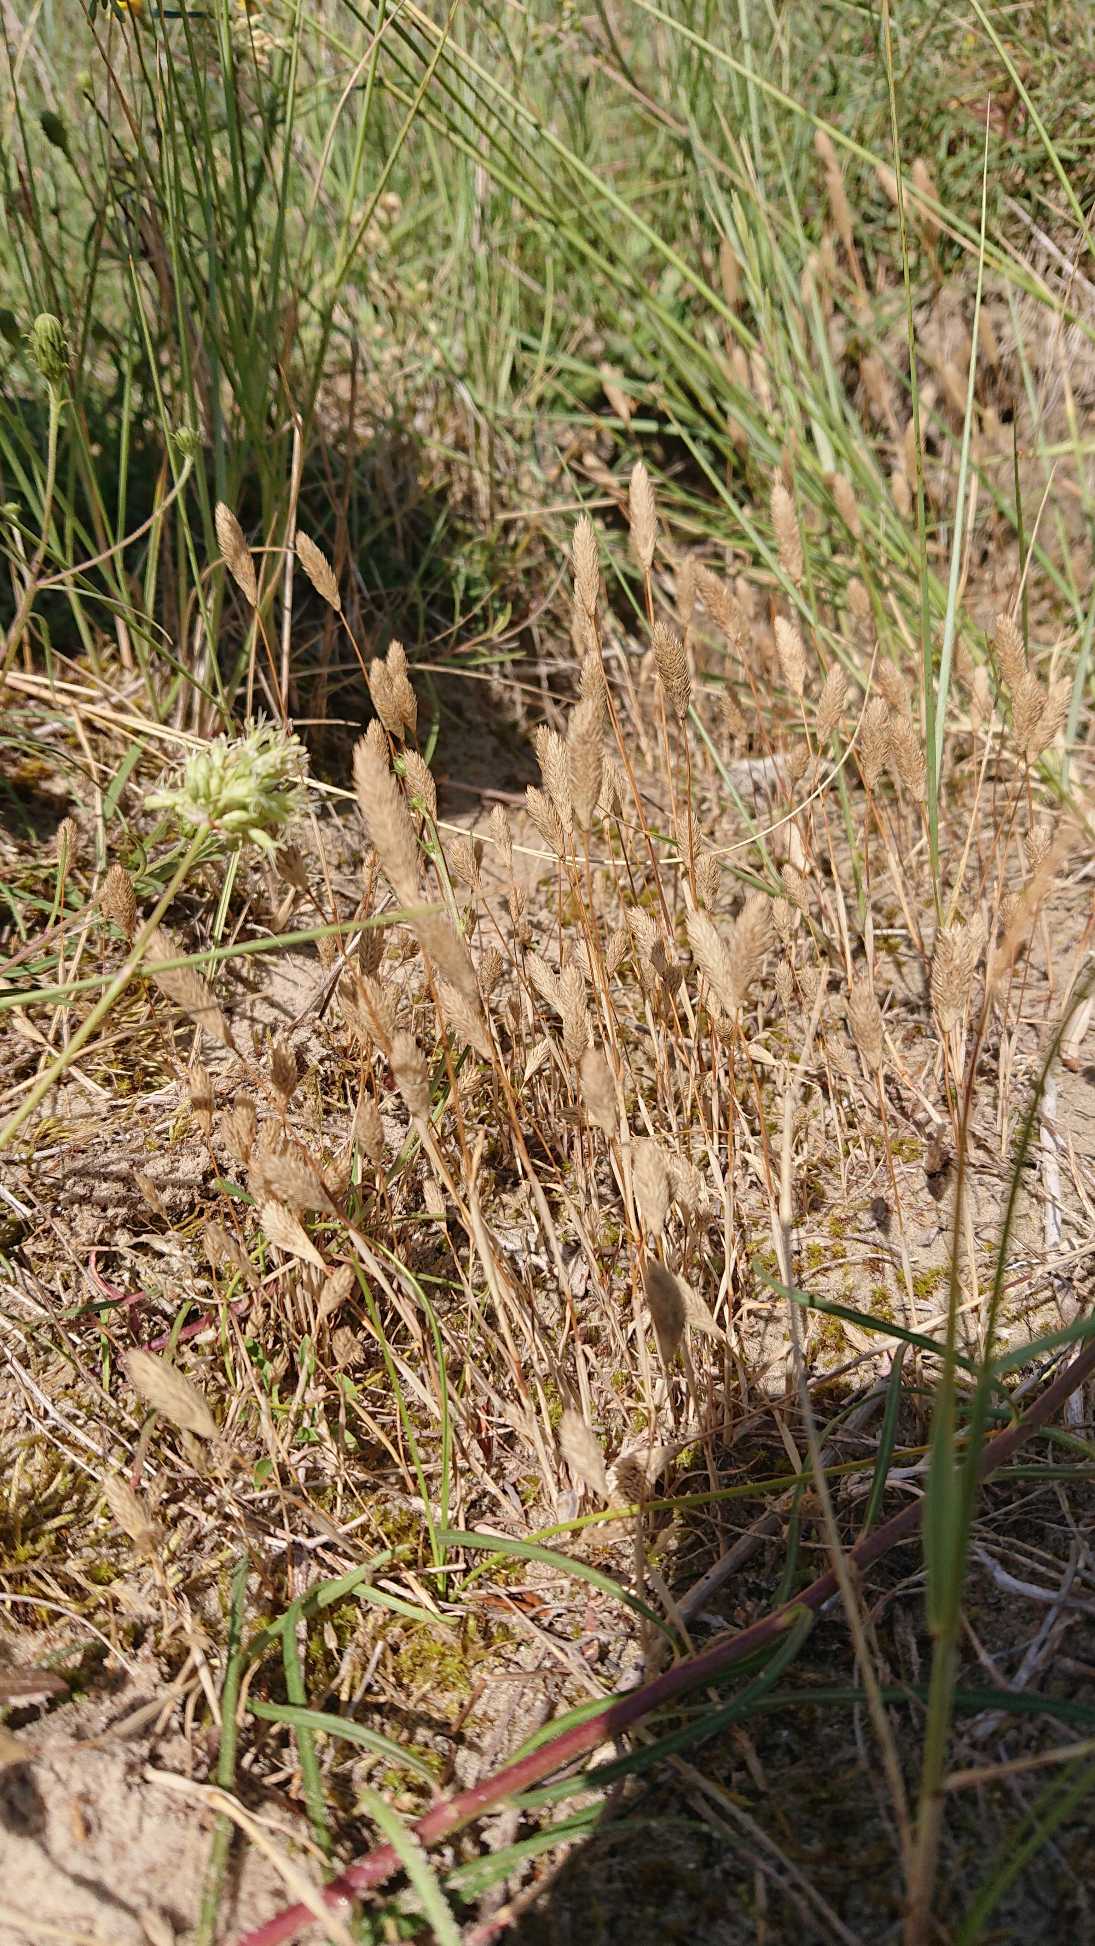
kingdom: Plantae
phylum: Tracheophyta
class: Liliopsida
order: Poales
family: Poaceae
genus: Phleum
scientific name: Phleum arenarium
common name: Sand-rottehale
